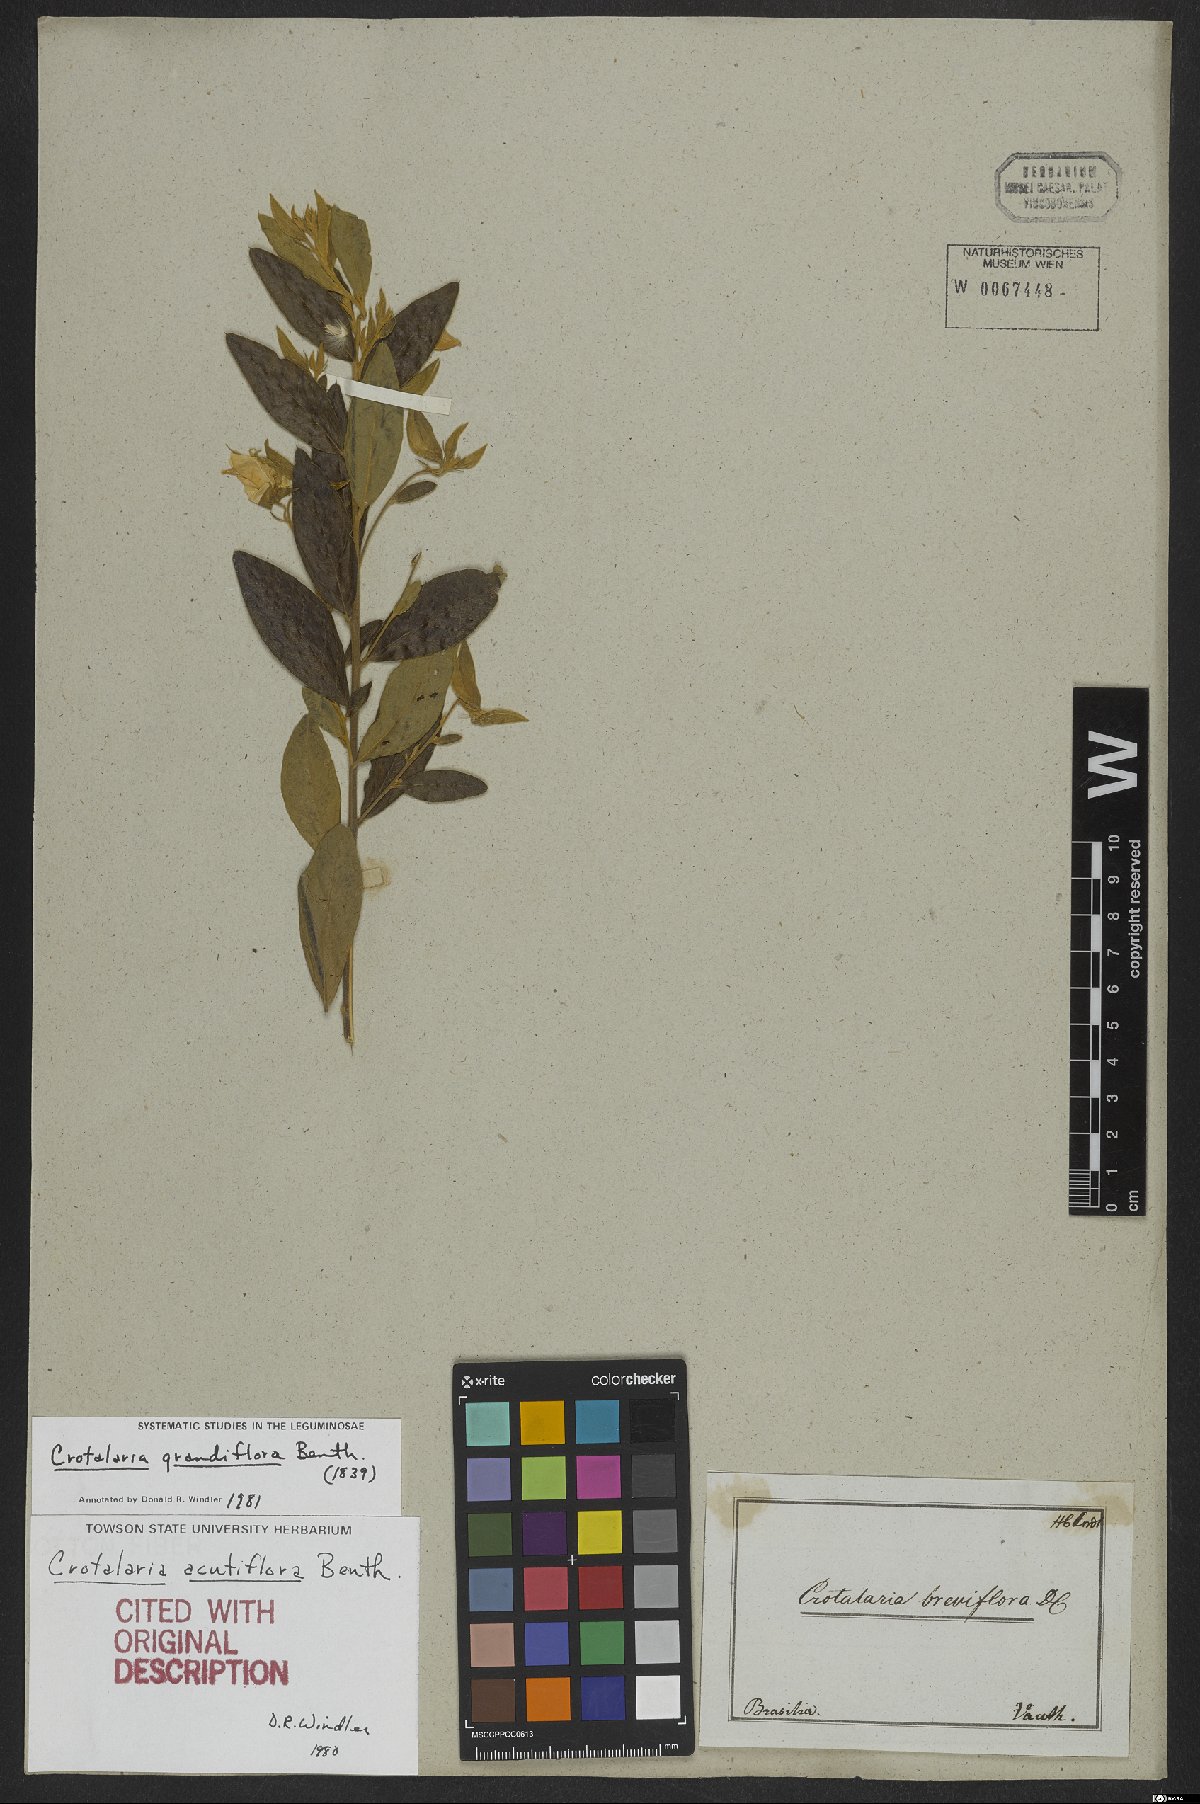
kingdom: Plantae
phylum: Tracheophyta
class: Magnoliopsida
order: Fabales
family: Fabaceae
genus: Crotalaria
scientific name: Crotalaria grandiflora
